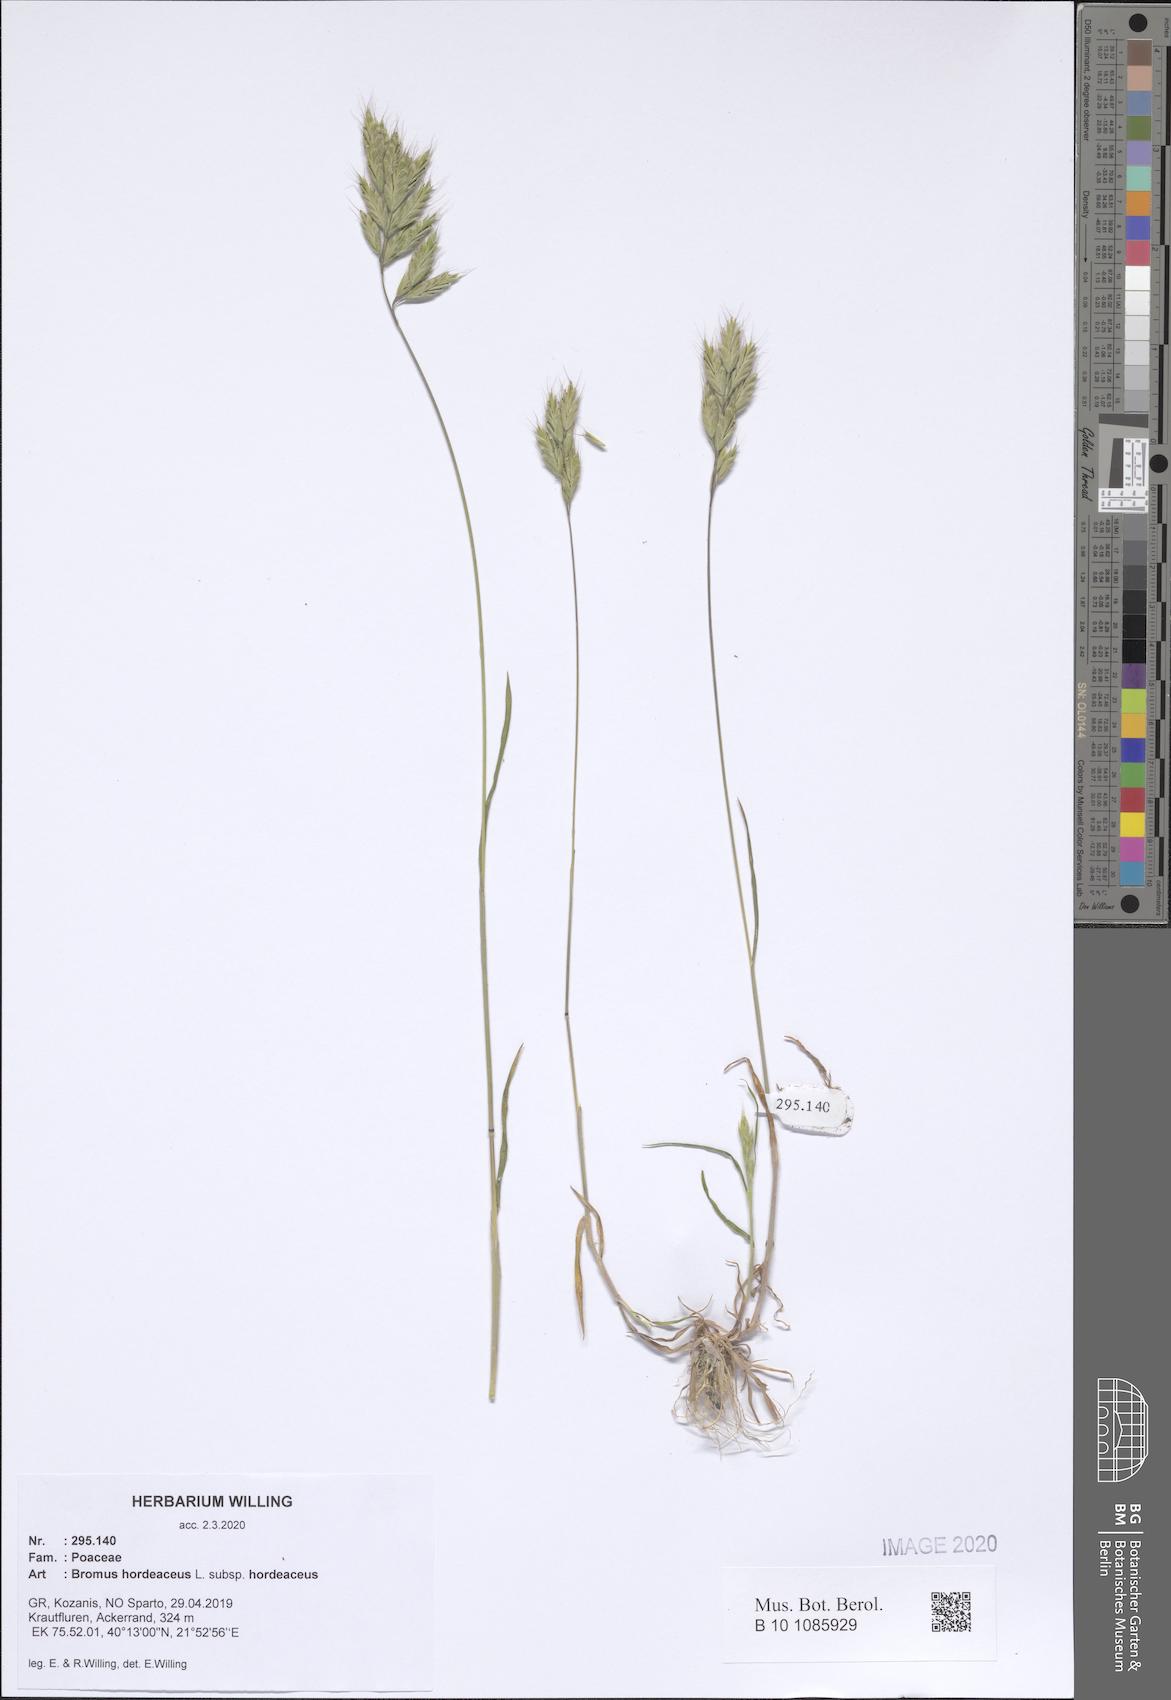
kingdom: Plantae
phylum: Tracheophyta
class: Liliopsida
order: Poales
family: Poaceae
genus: Bromus
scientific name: Bromus hordeaceus
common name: Soft brome
